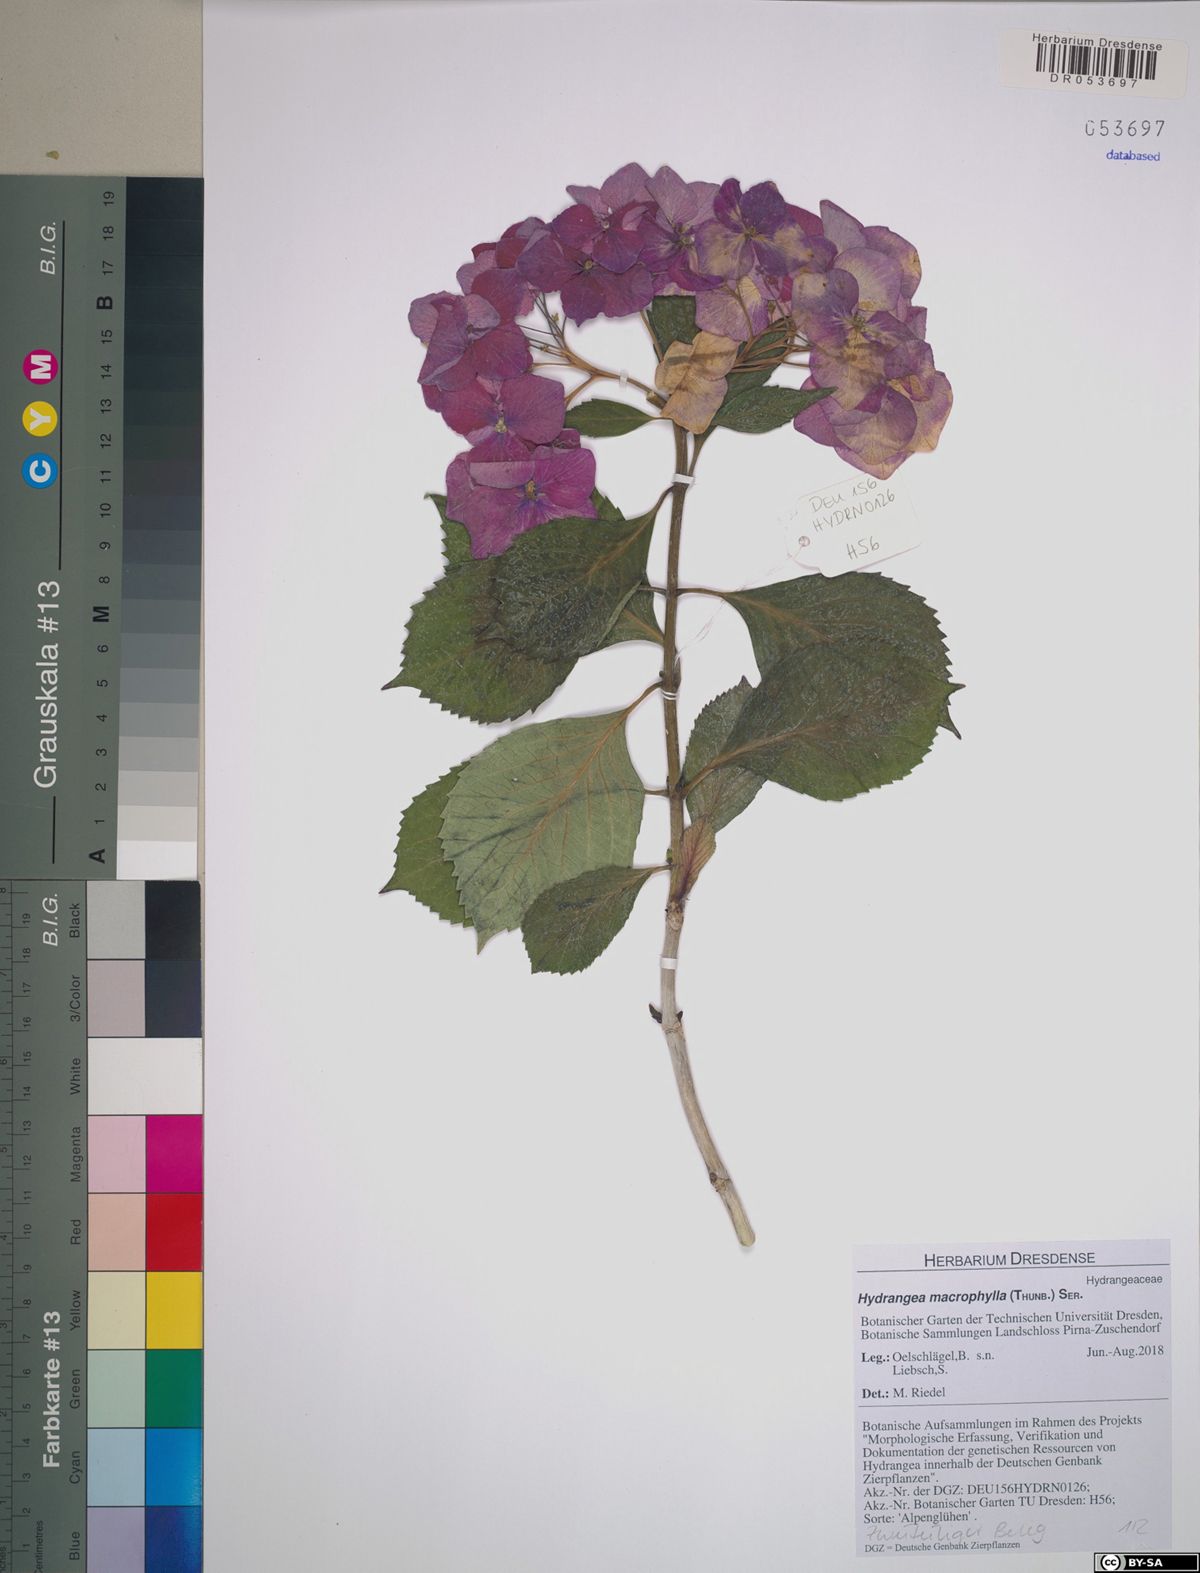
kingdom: Plantae
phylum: Tracheophyta
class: Magnoliopsida
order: Cornales
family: Hydrangeaceae
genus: Hydrangea
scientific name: Hydrangea macrophylla
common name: Hydrangea
